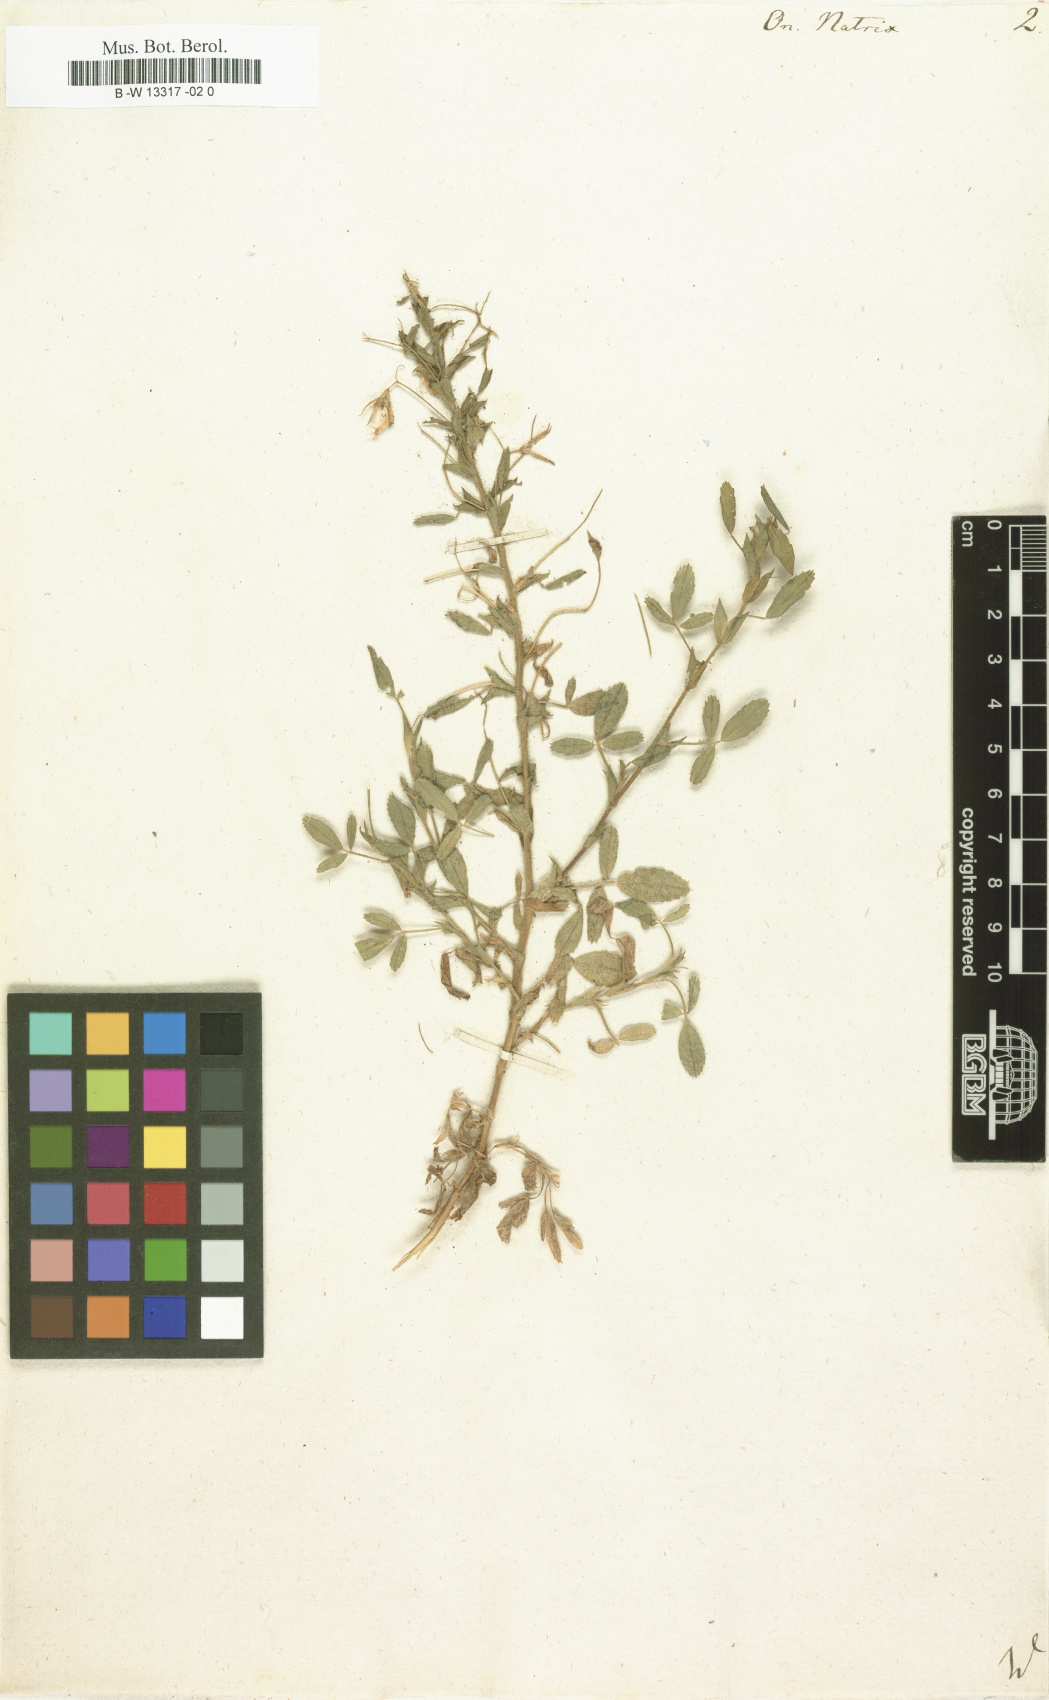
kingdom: Plantae
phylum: Tracheophyta
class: Magnoliopsida
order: Fabales
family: Fabaceae
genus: Ononis
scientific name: Ononis natrix
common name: Yellow restharrow
